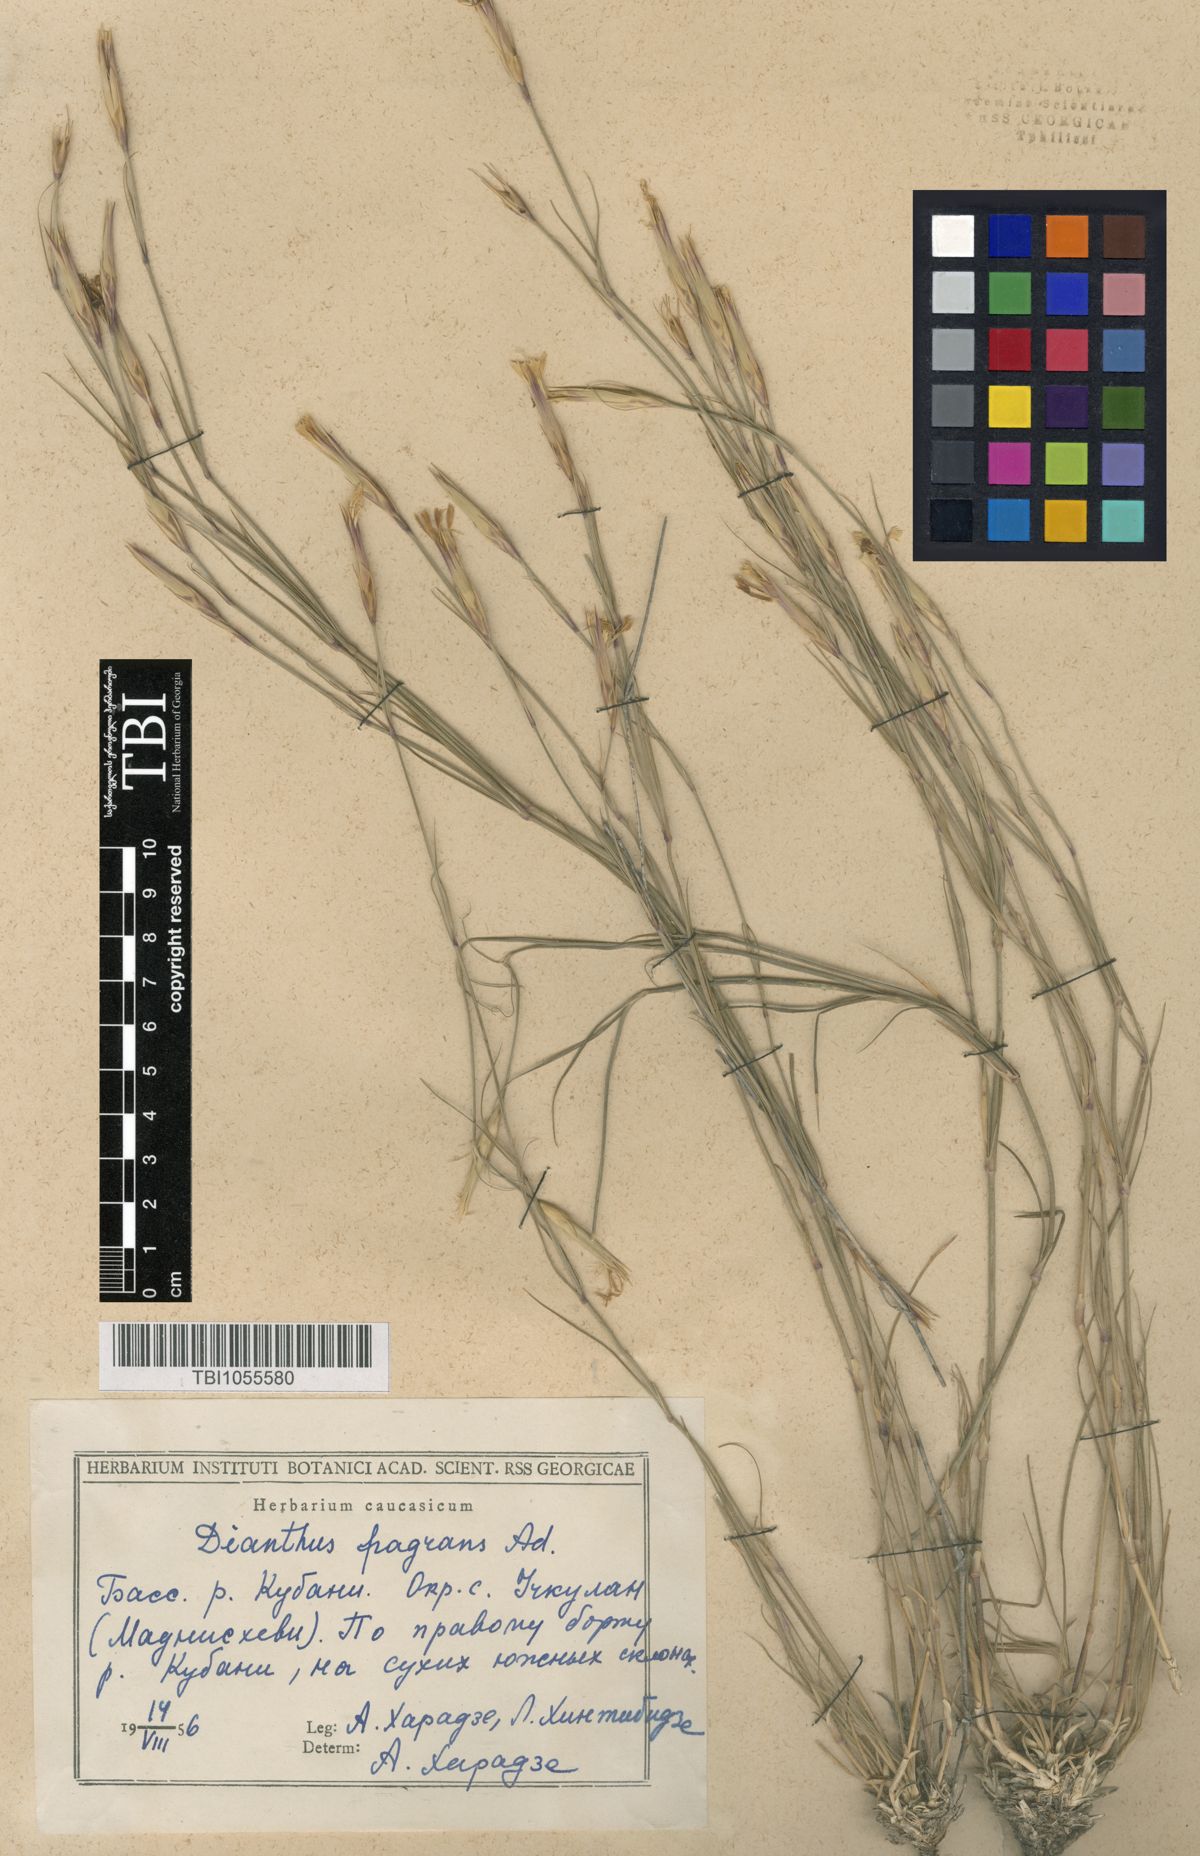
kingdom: Plantae
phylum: Tracheophyta
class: Magnoliopsida
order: Caryophyllales
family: Caryophyllaceae
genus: Dianthus
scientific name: Dianthus
